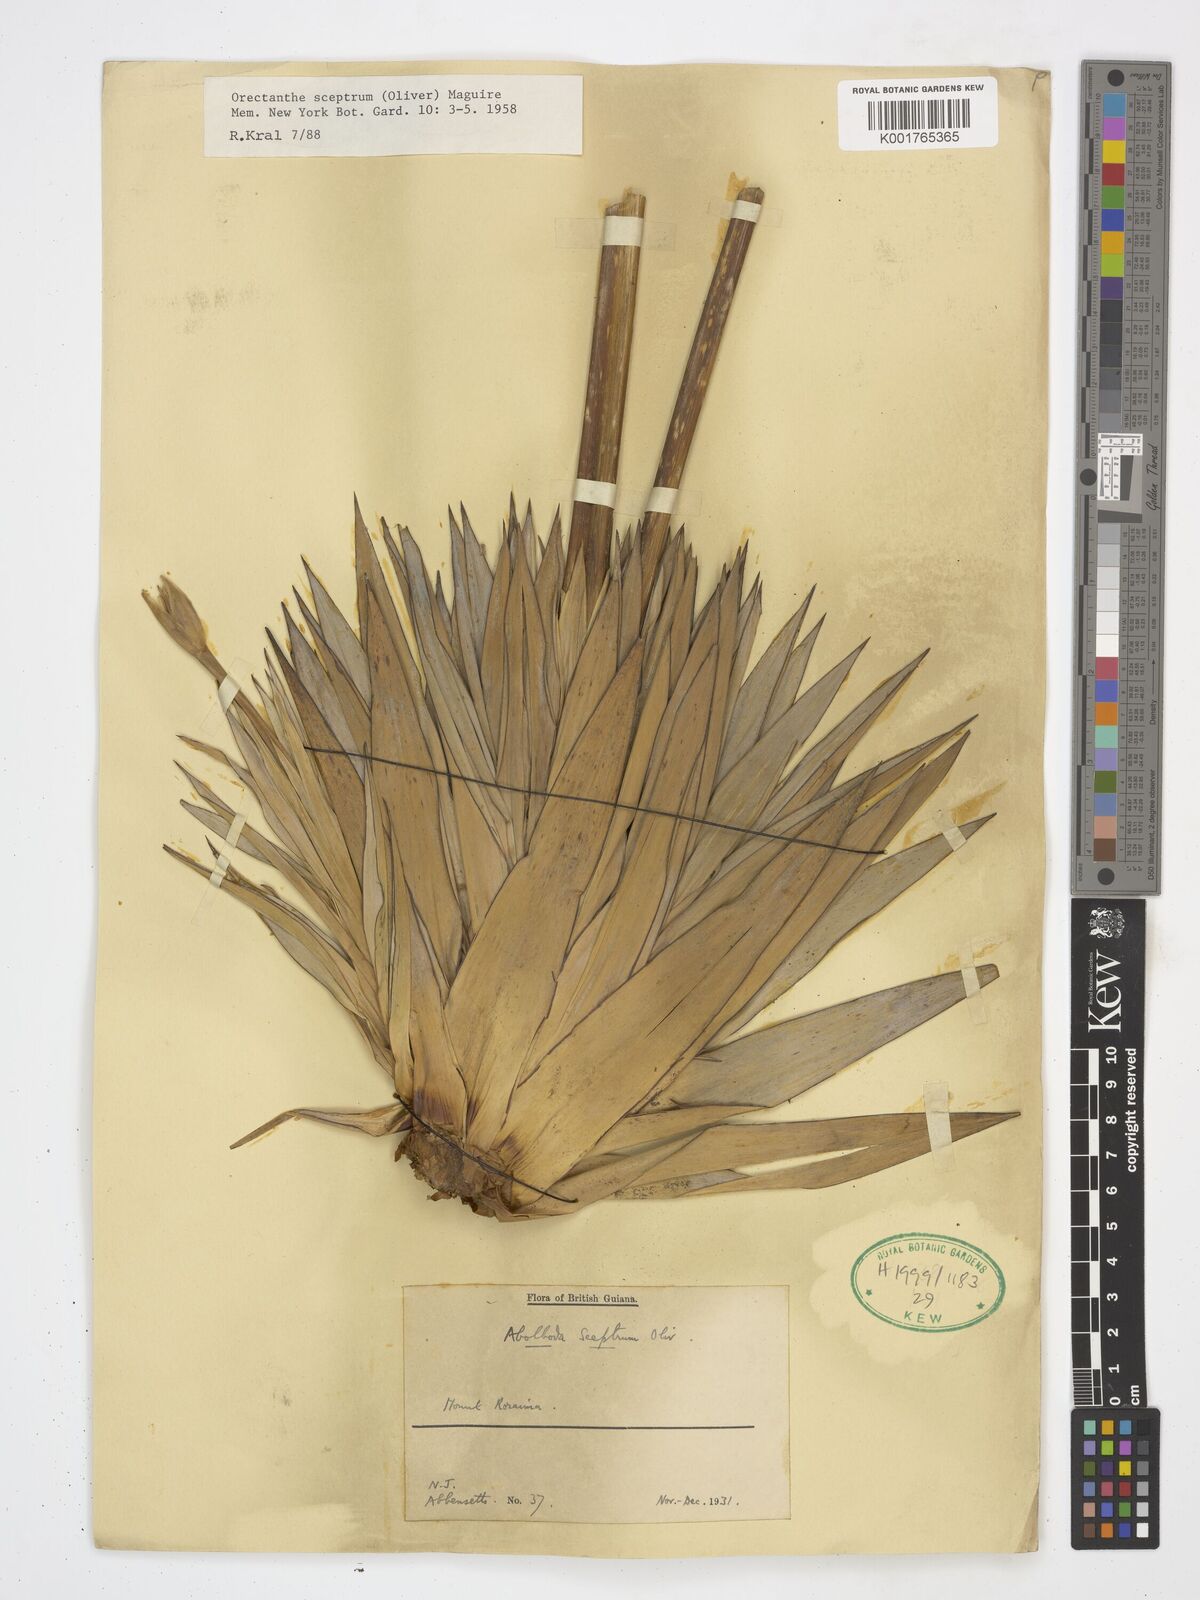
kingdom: Plantae
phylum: Tracheophyta
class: Liliopsida
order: Poales
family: Xyridaceae
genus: Orectanthe
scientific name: Orectanthe sceptrum
